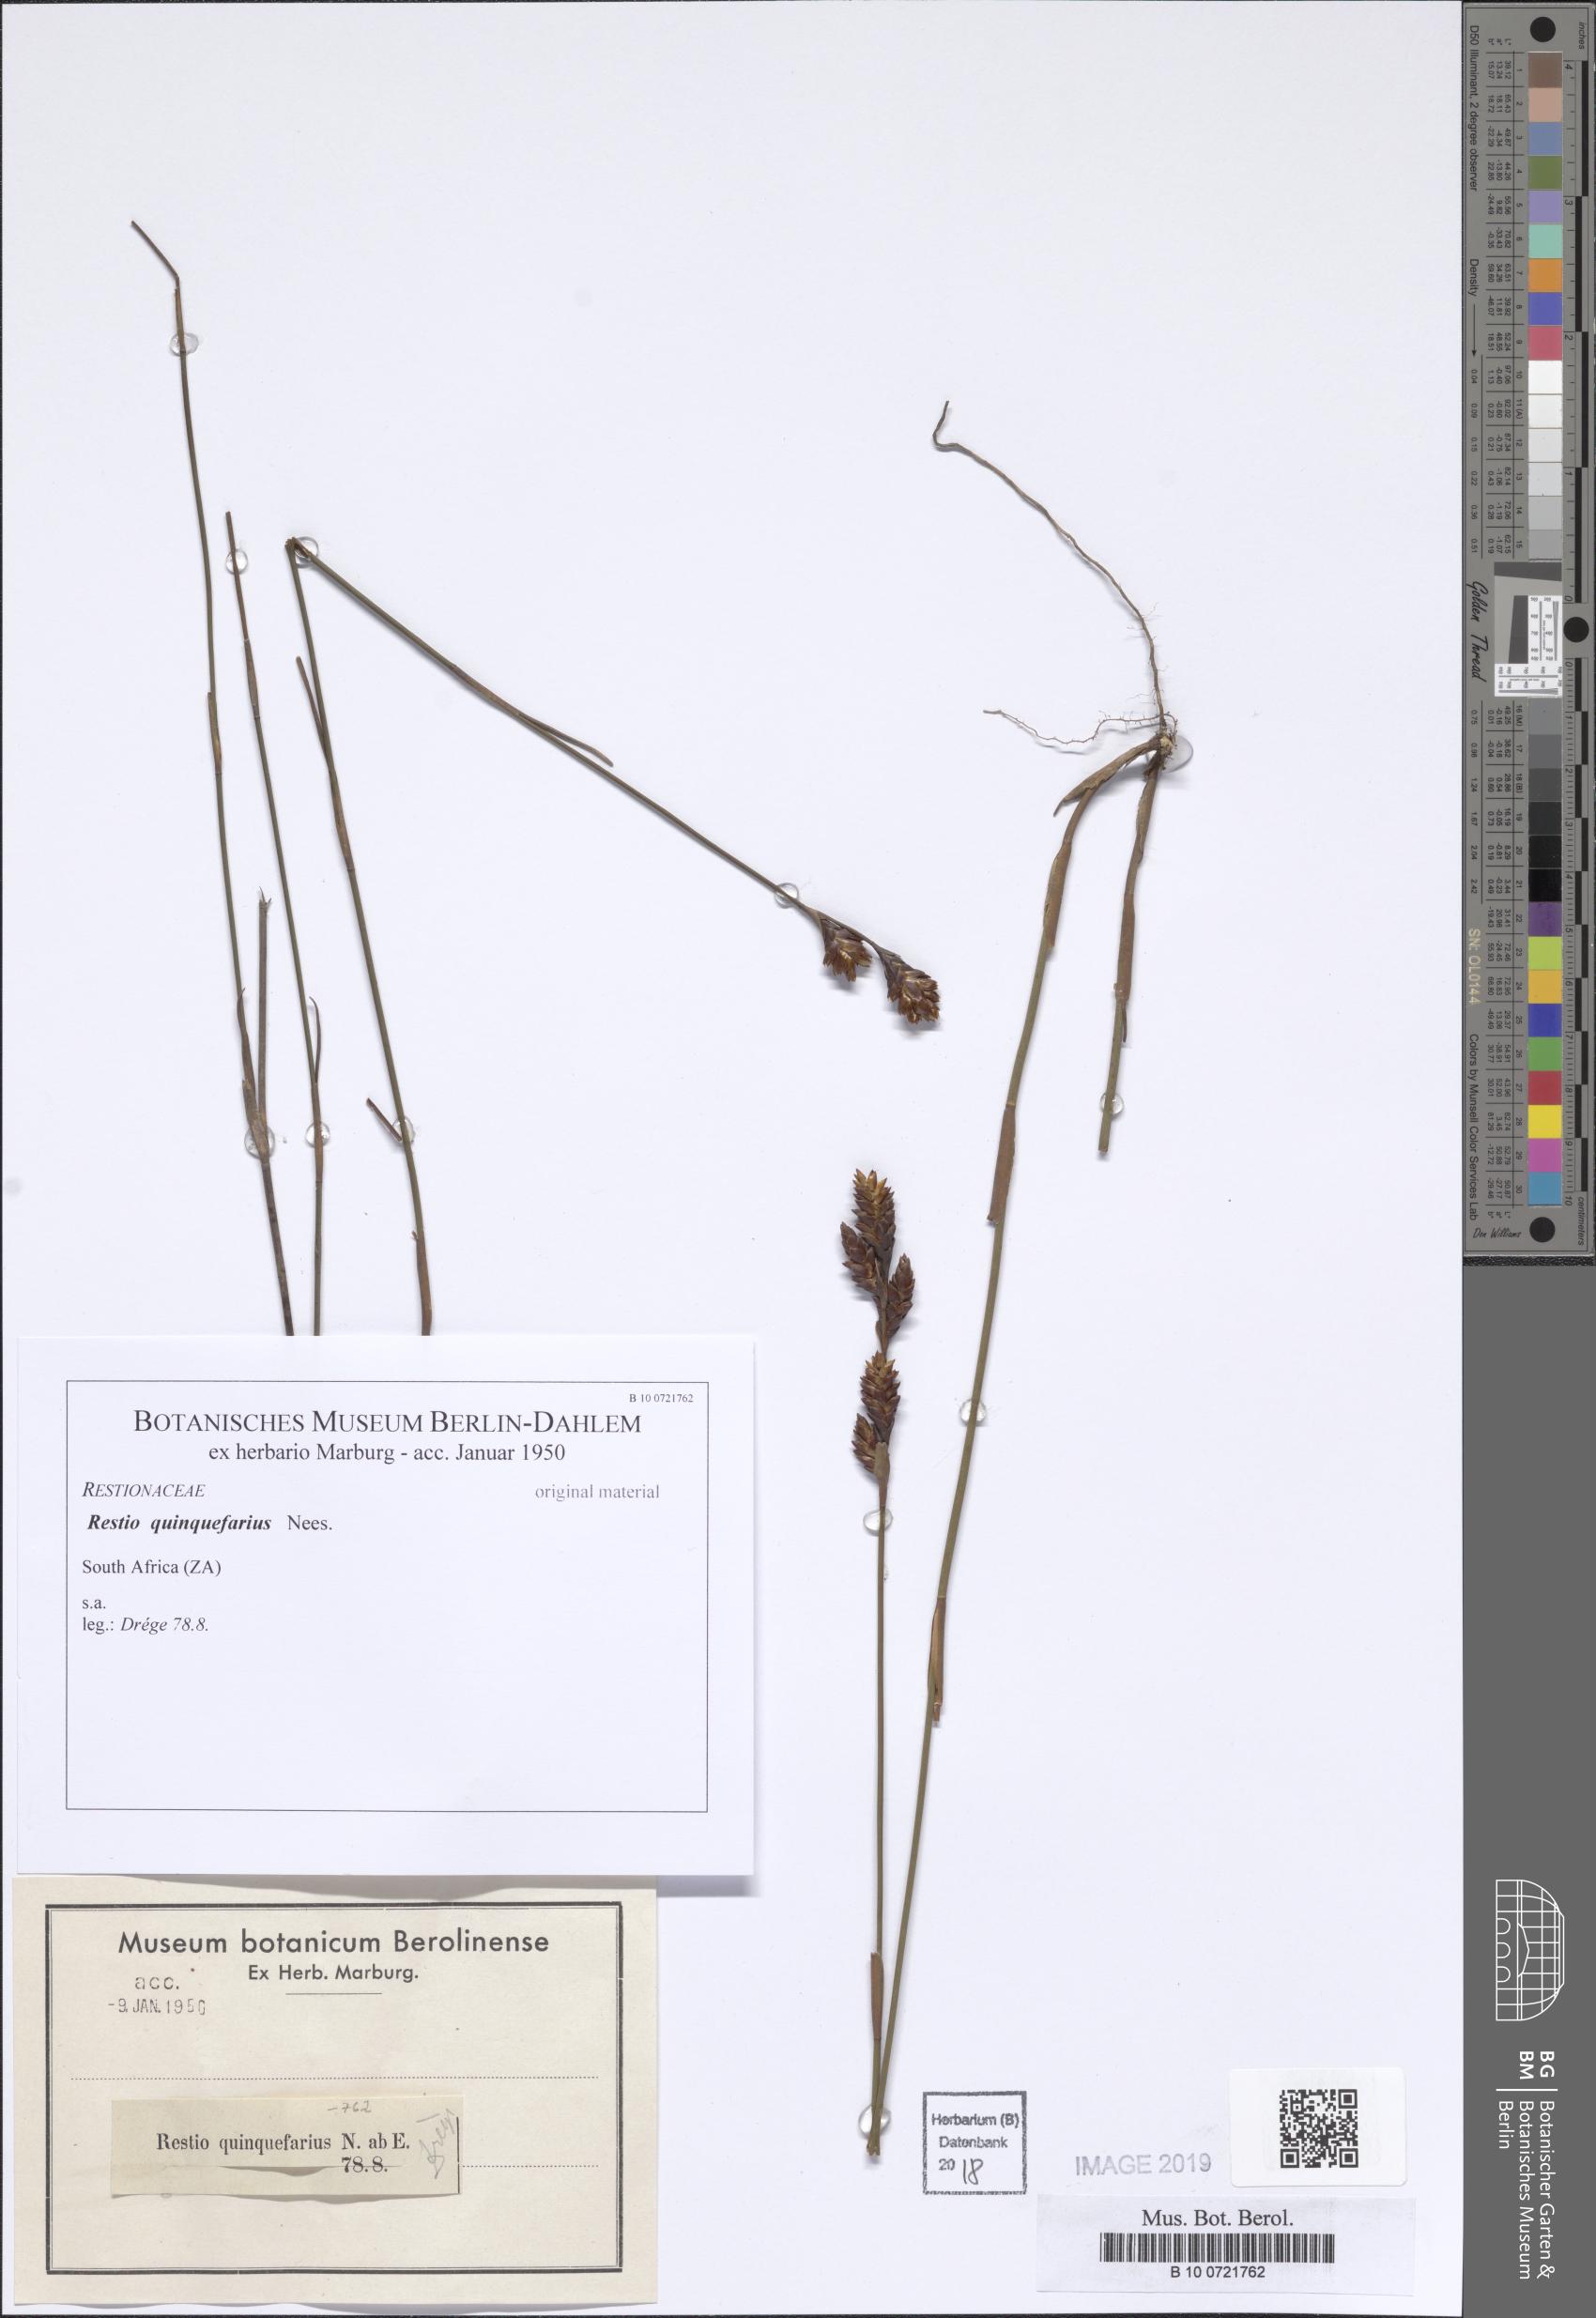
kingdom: Plantae
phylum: Tracheophyta
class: Liliopsida
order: Poales
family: Restionaceae
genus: Restio
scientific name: Restio quinquefarius
